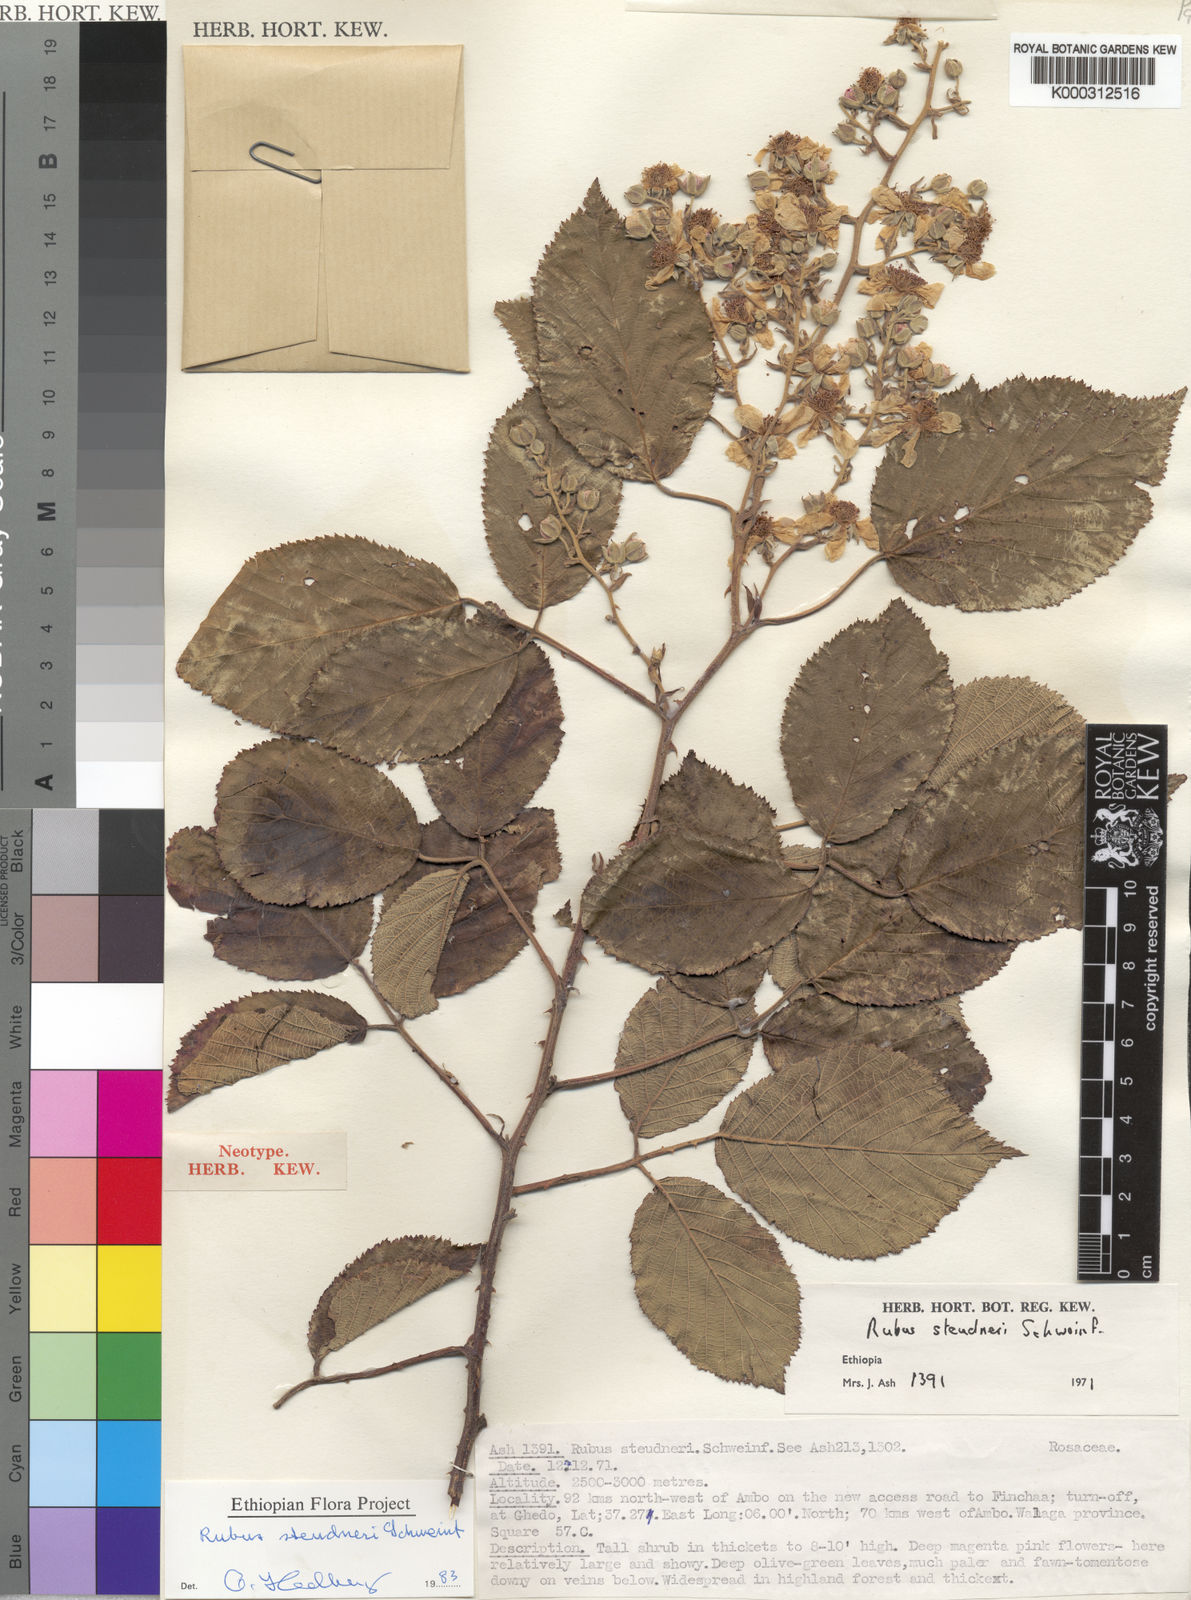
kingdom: Plantae
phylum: Tracheophyta
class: Magnoliopsida
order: Rosales
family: Rosaceae
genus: Rubus
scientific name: Rubus steudneri
